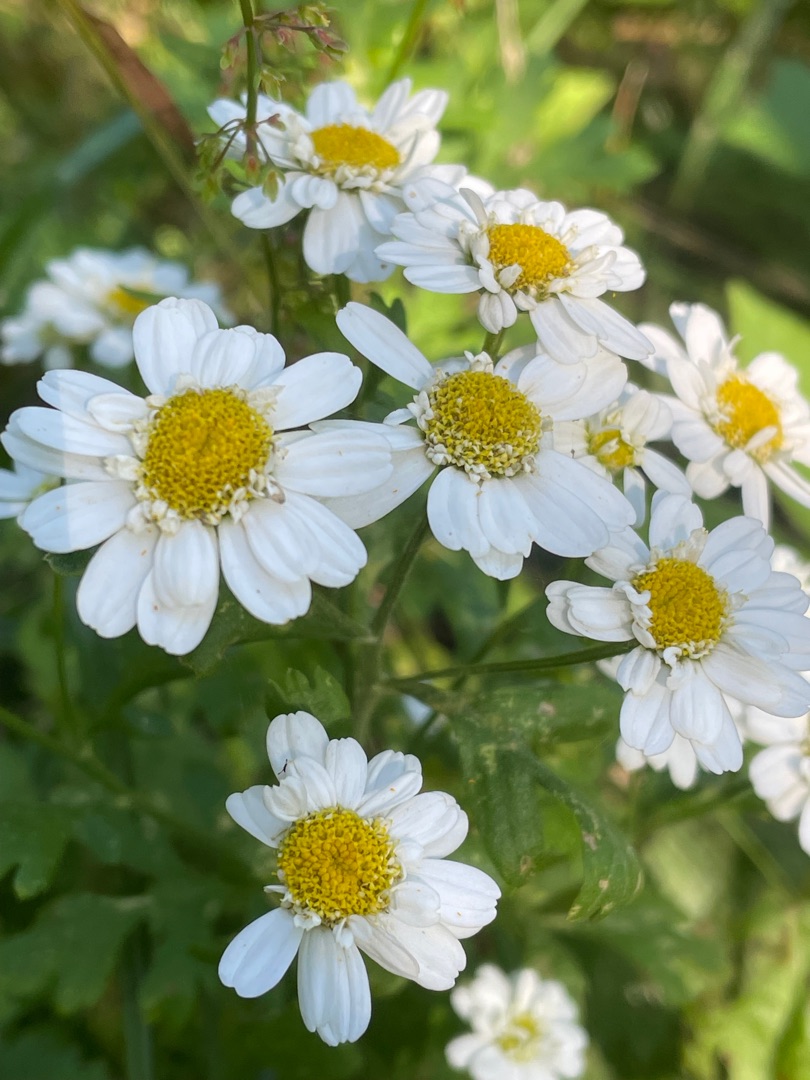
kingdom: Plantae
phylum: Tracheophyta
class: Magnoliopsida
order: Asterales
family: Asteraceae
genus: Tanacetum
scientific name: Tanacetum parthenium
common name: Matrem
